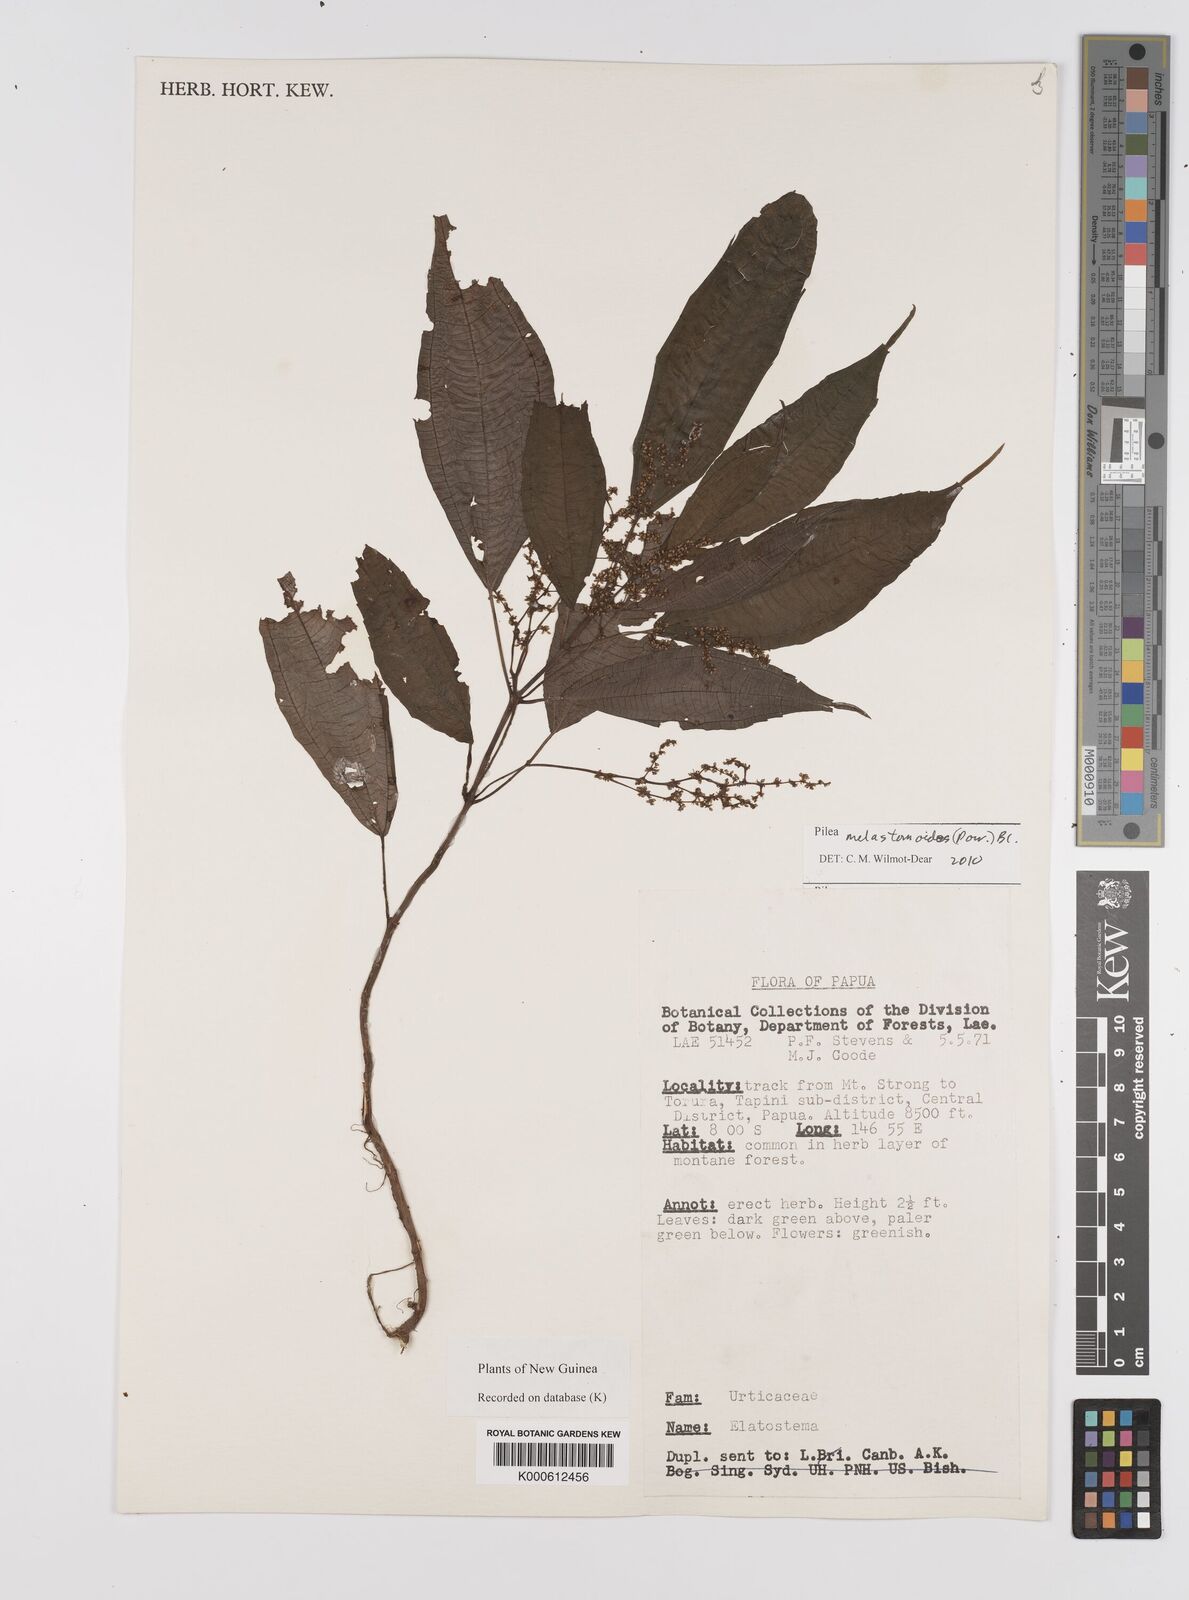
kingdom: Plantae
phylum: Tracheophyta
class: Magnoliopsida
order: Rosales
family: Urticaceae
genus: Pilea
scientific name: Pilea
